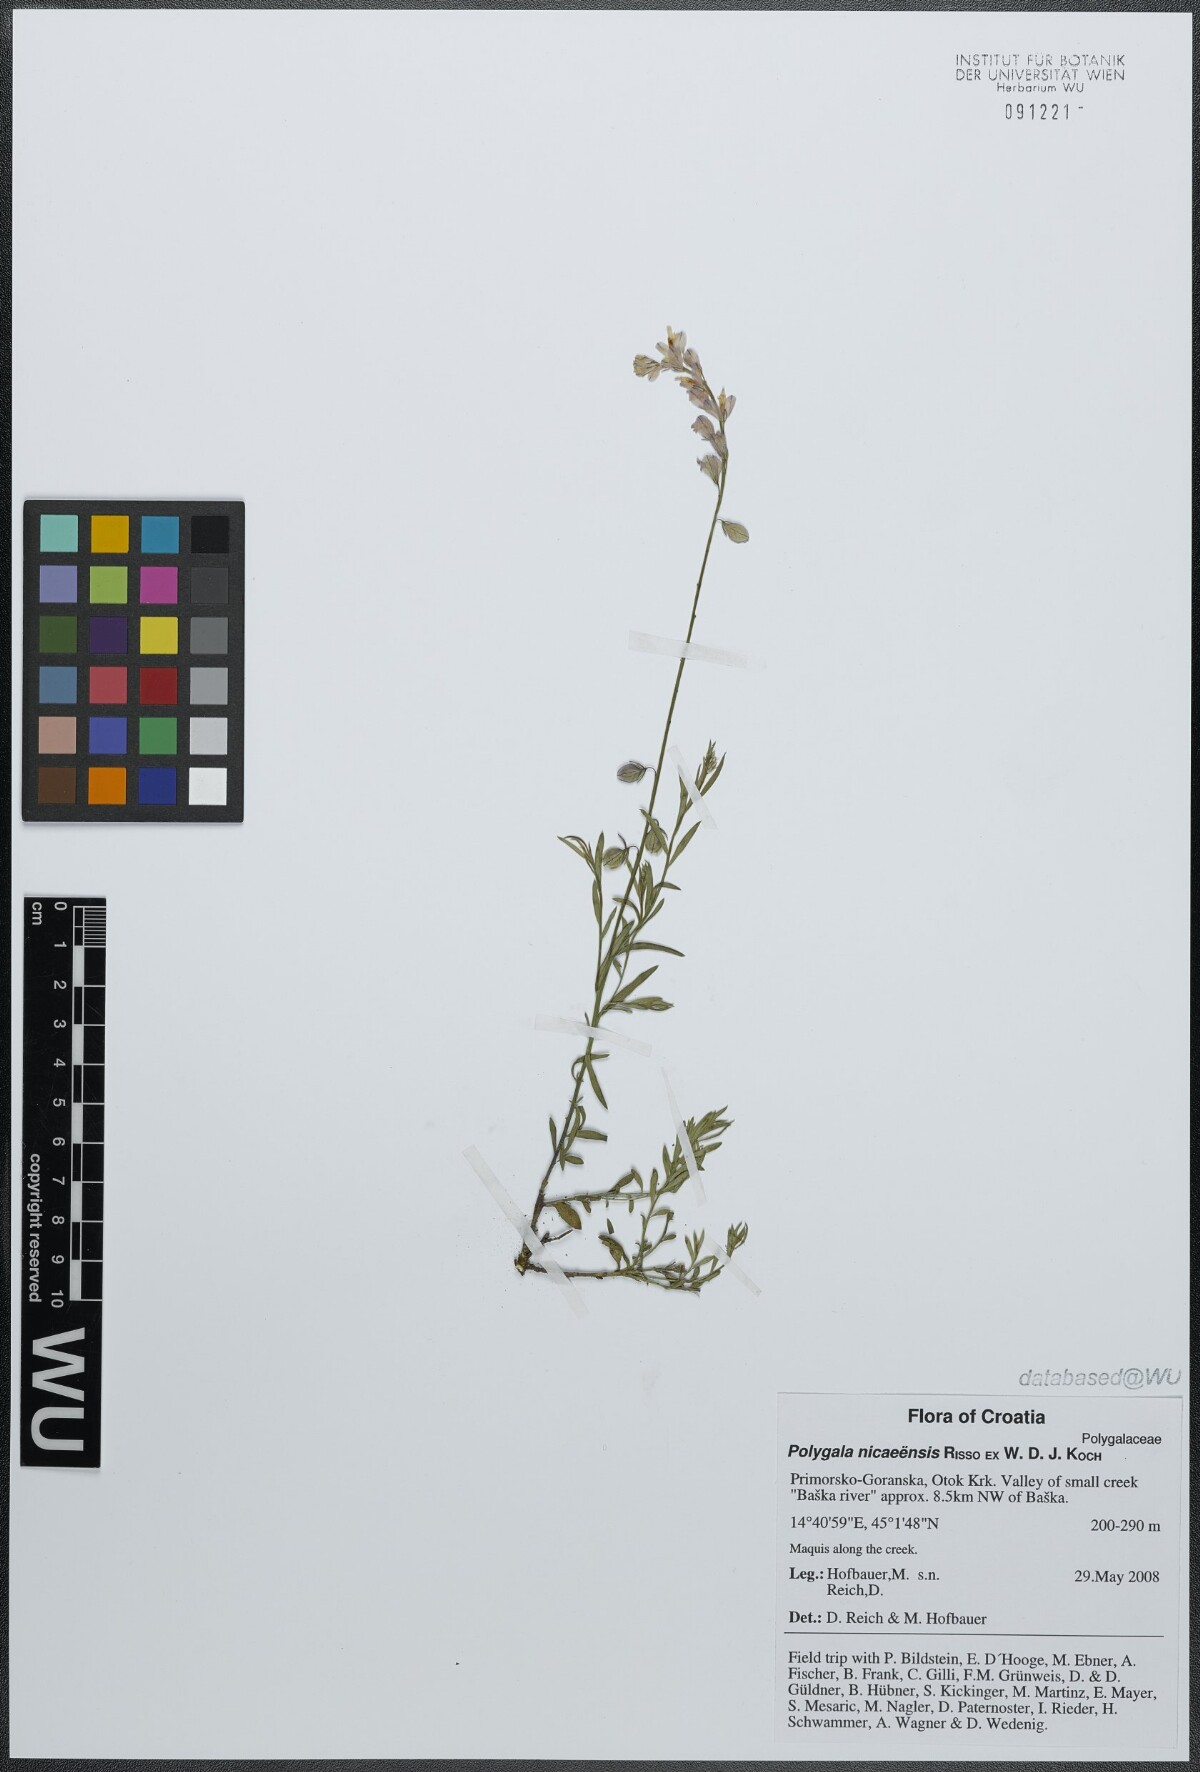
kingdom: Plantae
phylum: Tracheophyta
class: Magnoliopsida
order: Fabales
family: Polygalaceae
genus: Polygala
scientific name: Polygala nicaeensis
